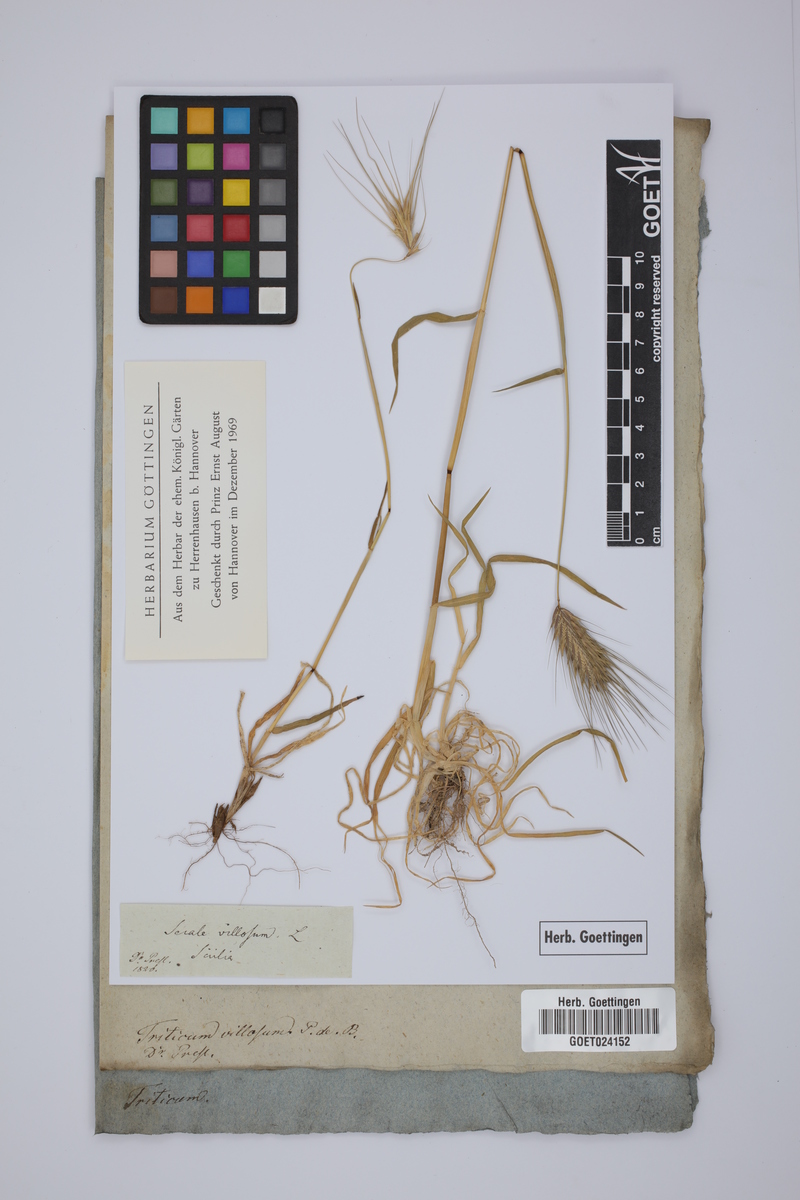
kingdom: Plantae
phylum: Tracheophyta
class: Liliopsida
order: Poales
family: Poaceae
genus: Triticum
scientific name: Triticum turgidum
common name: Rivet wheat
